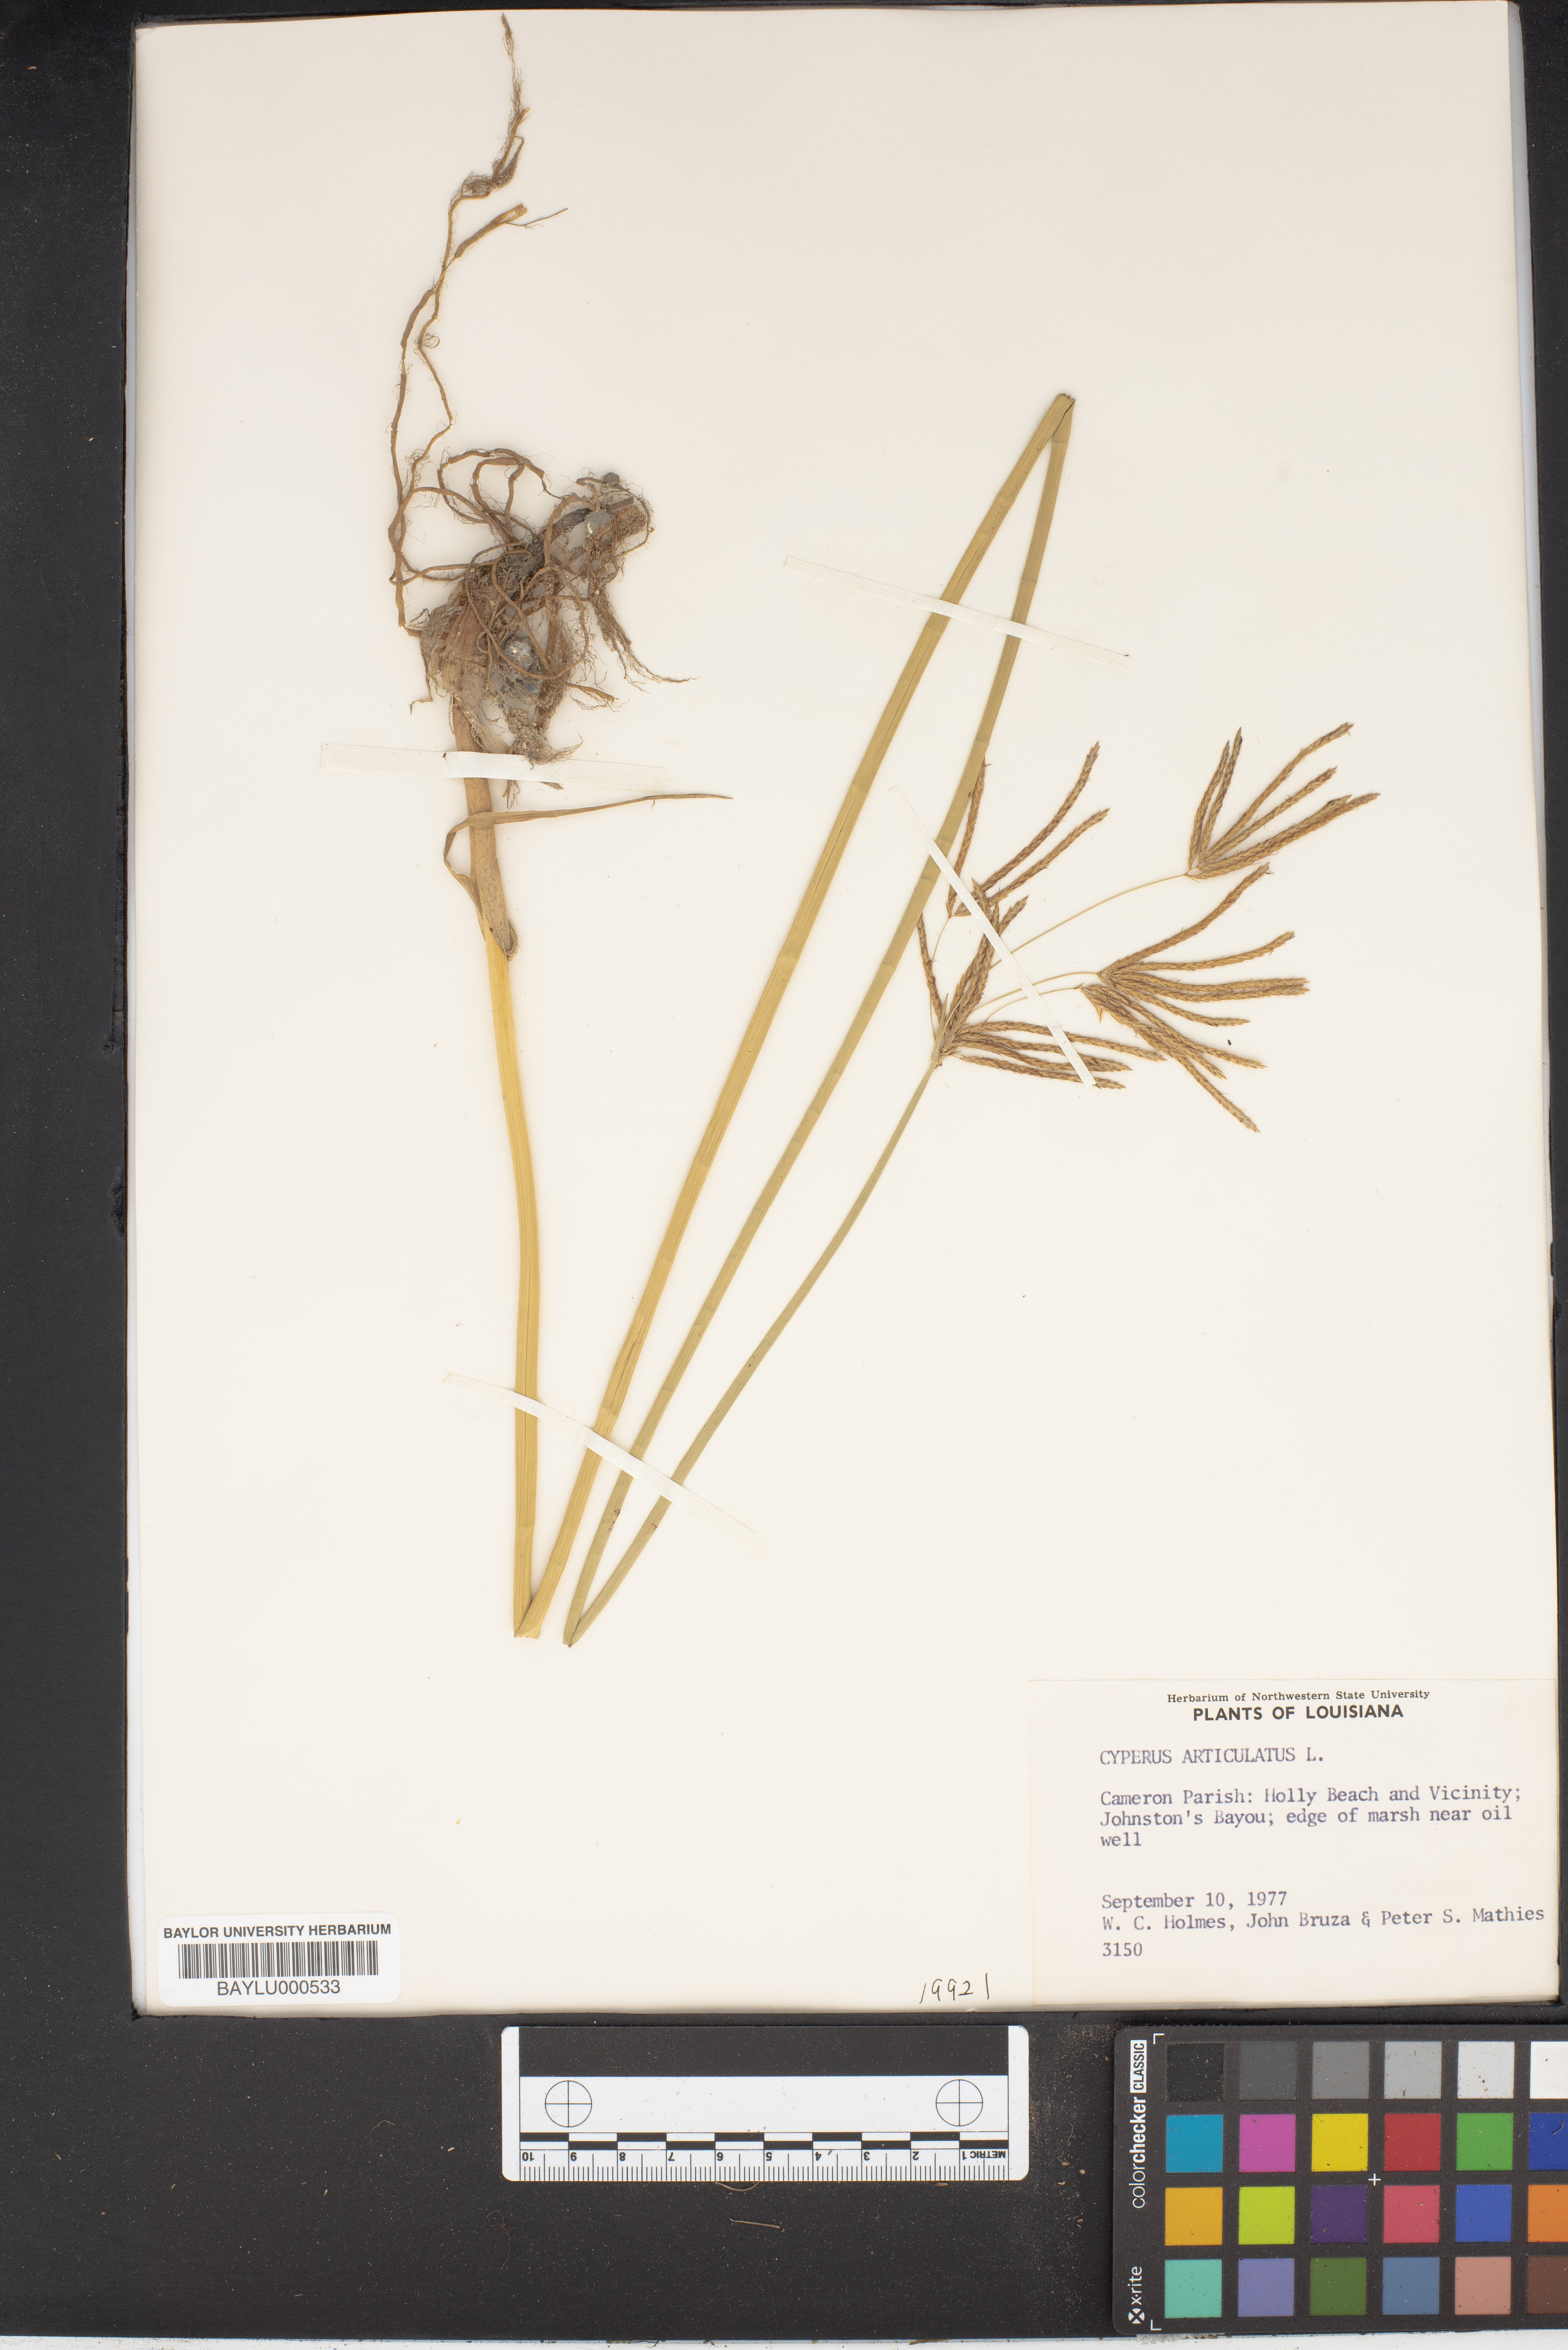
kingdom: Plantae
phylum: Tracheophyta
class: Liliopsida
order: Poales
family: Cyperaceae
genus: Cyperus
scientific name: Cyperus articulatus
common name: Jointed flatsedge
